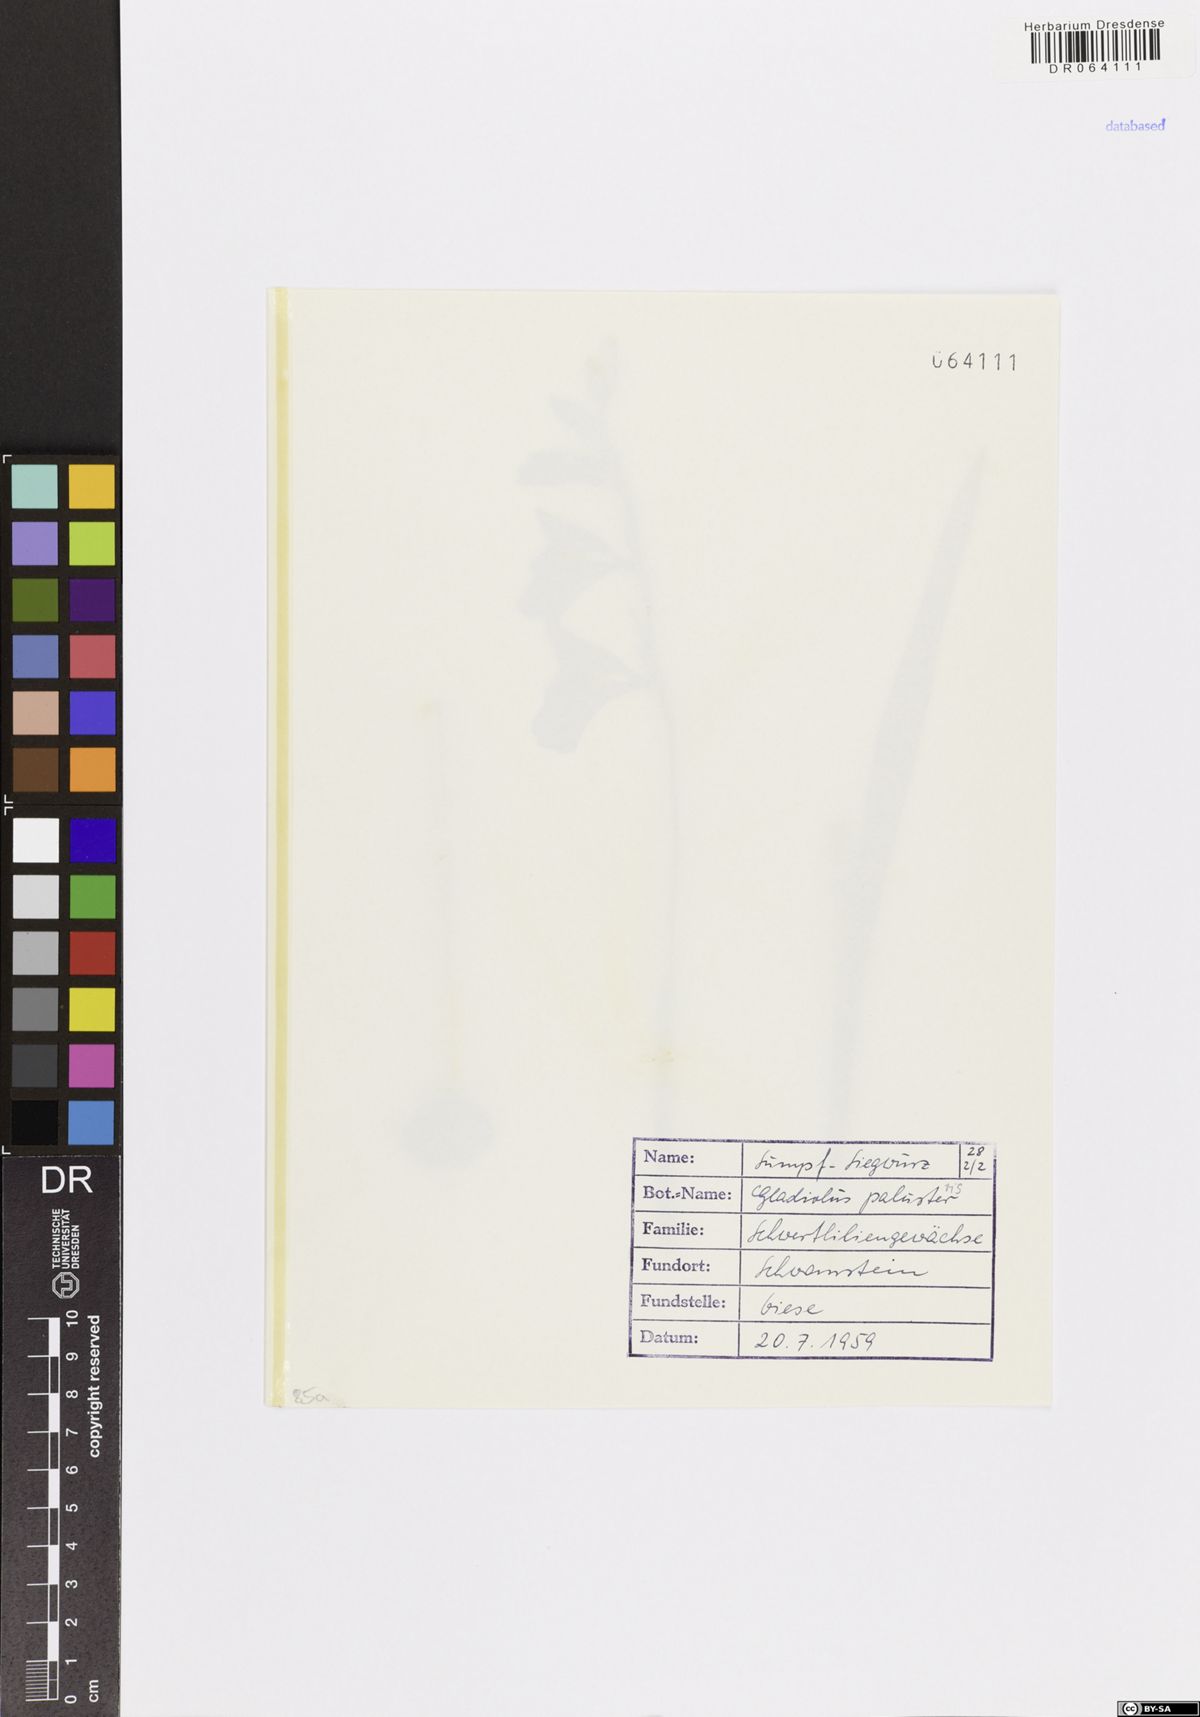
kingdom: Plantae
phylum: Tracheophyta
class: Liliopsida
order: Asparagales
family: Iridaceae
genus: Gladiolus
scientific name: Gladiolus palustris
